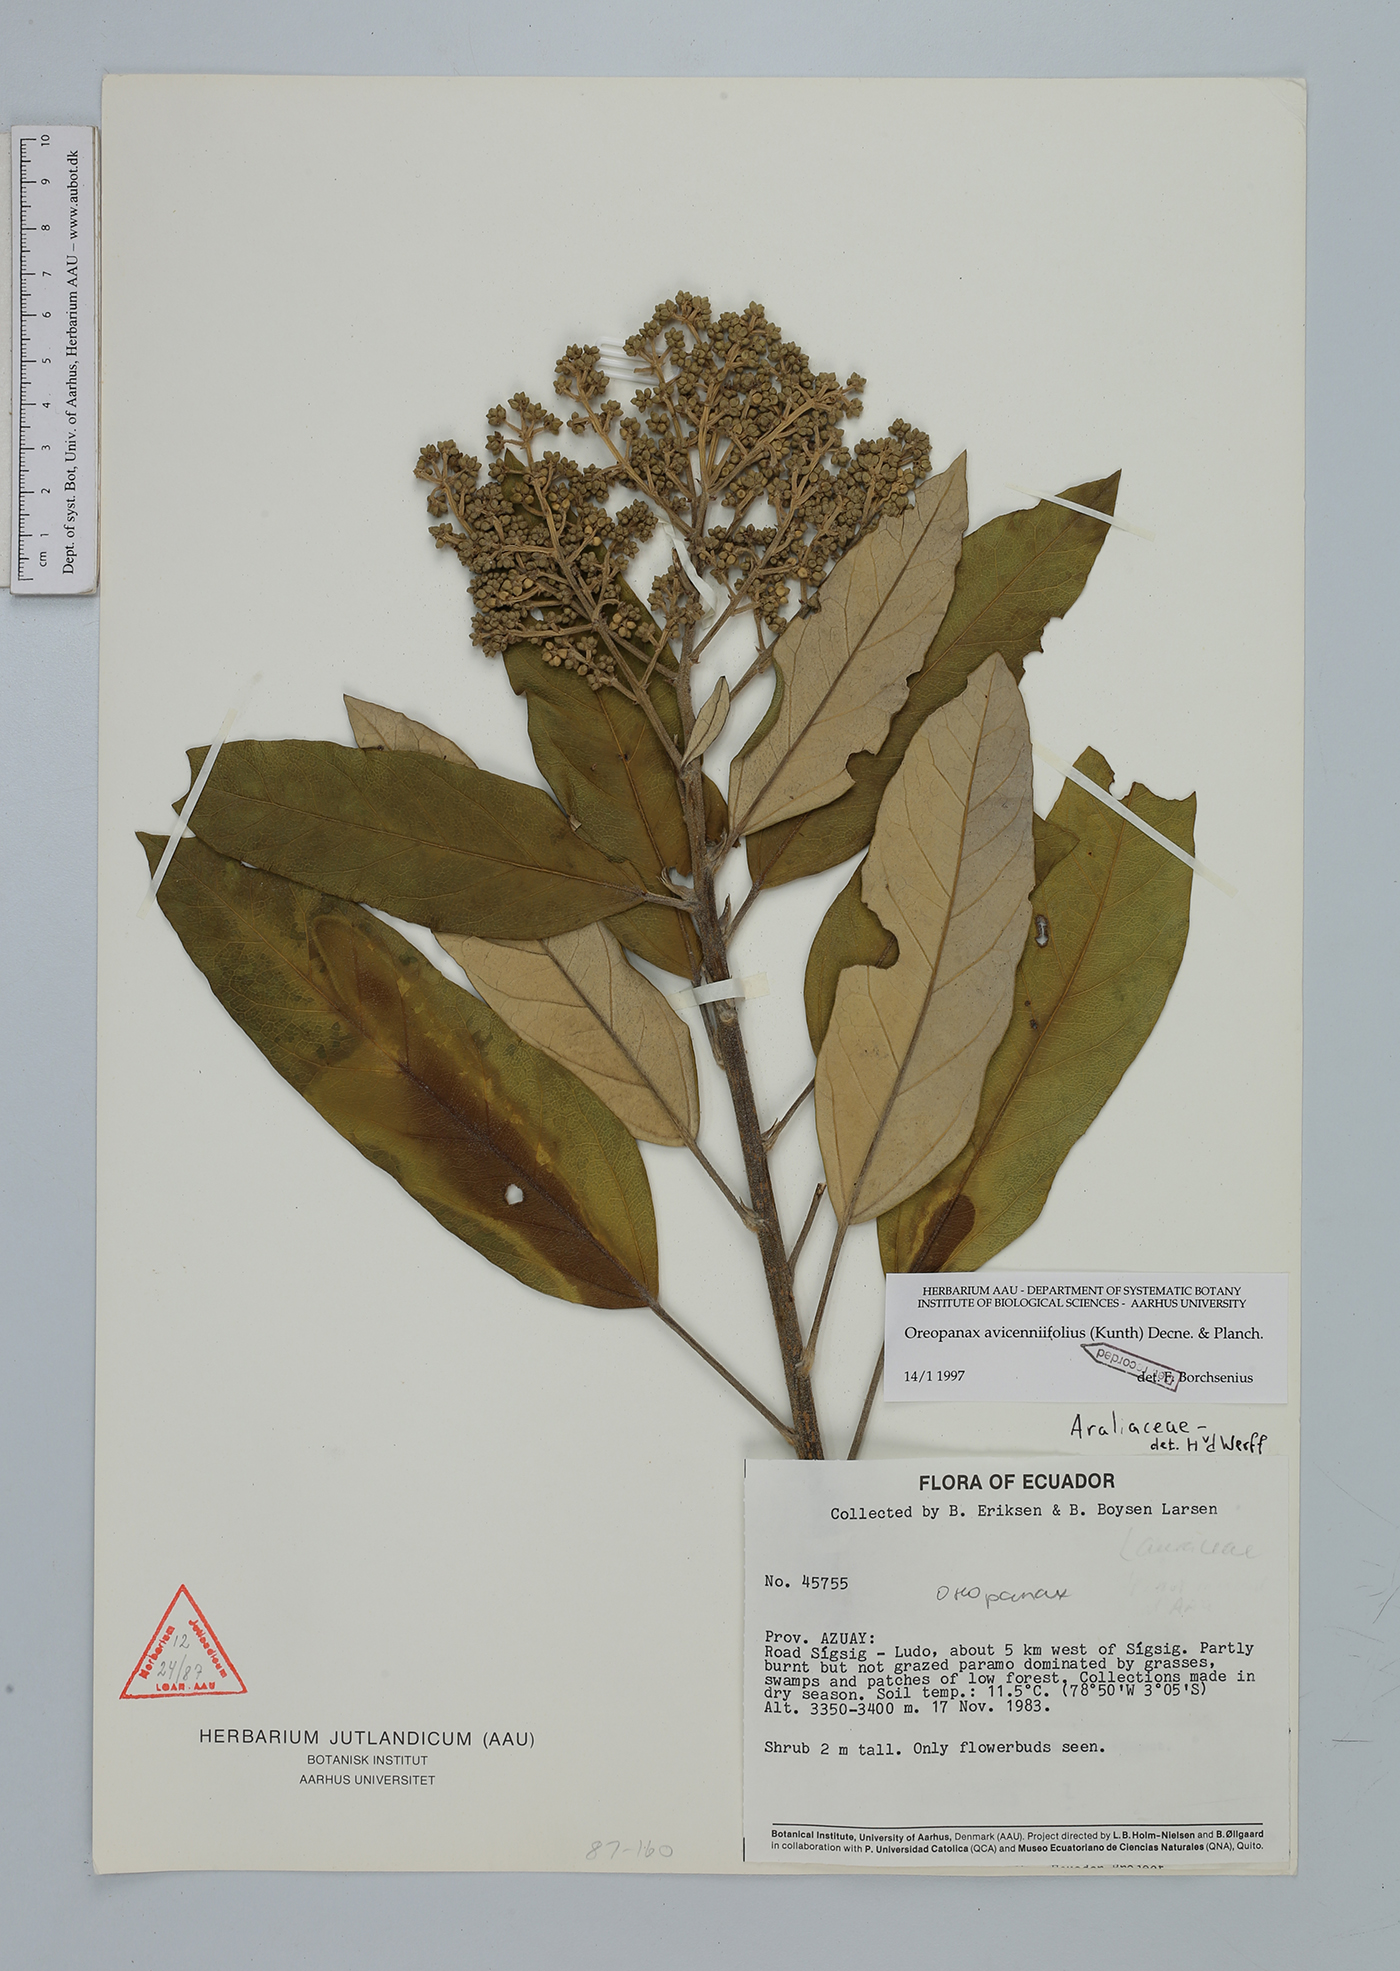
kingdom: Plantae
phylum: Tracheophyta
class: Magnoliopsida
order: Lamiales
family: Calceolariaceae
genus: Calceolaria
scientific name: Calceolaria mexicana
